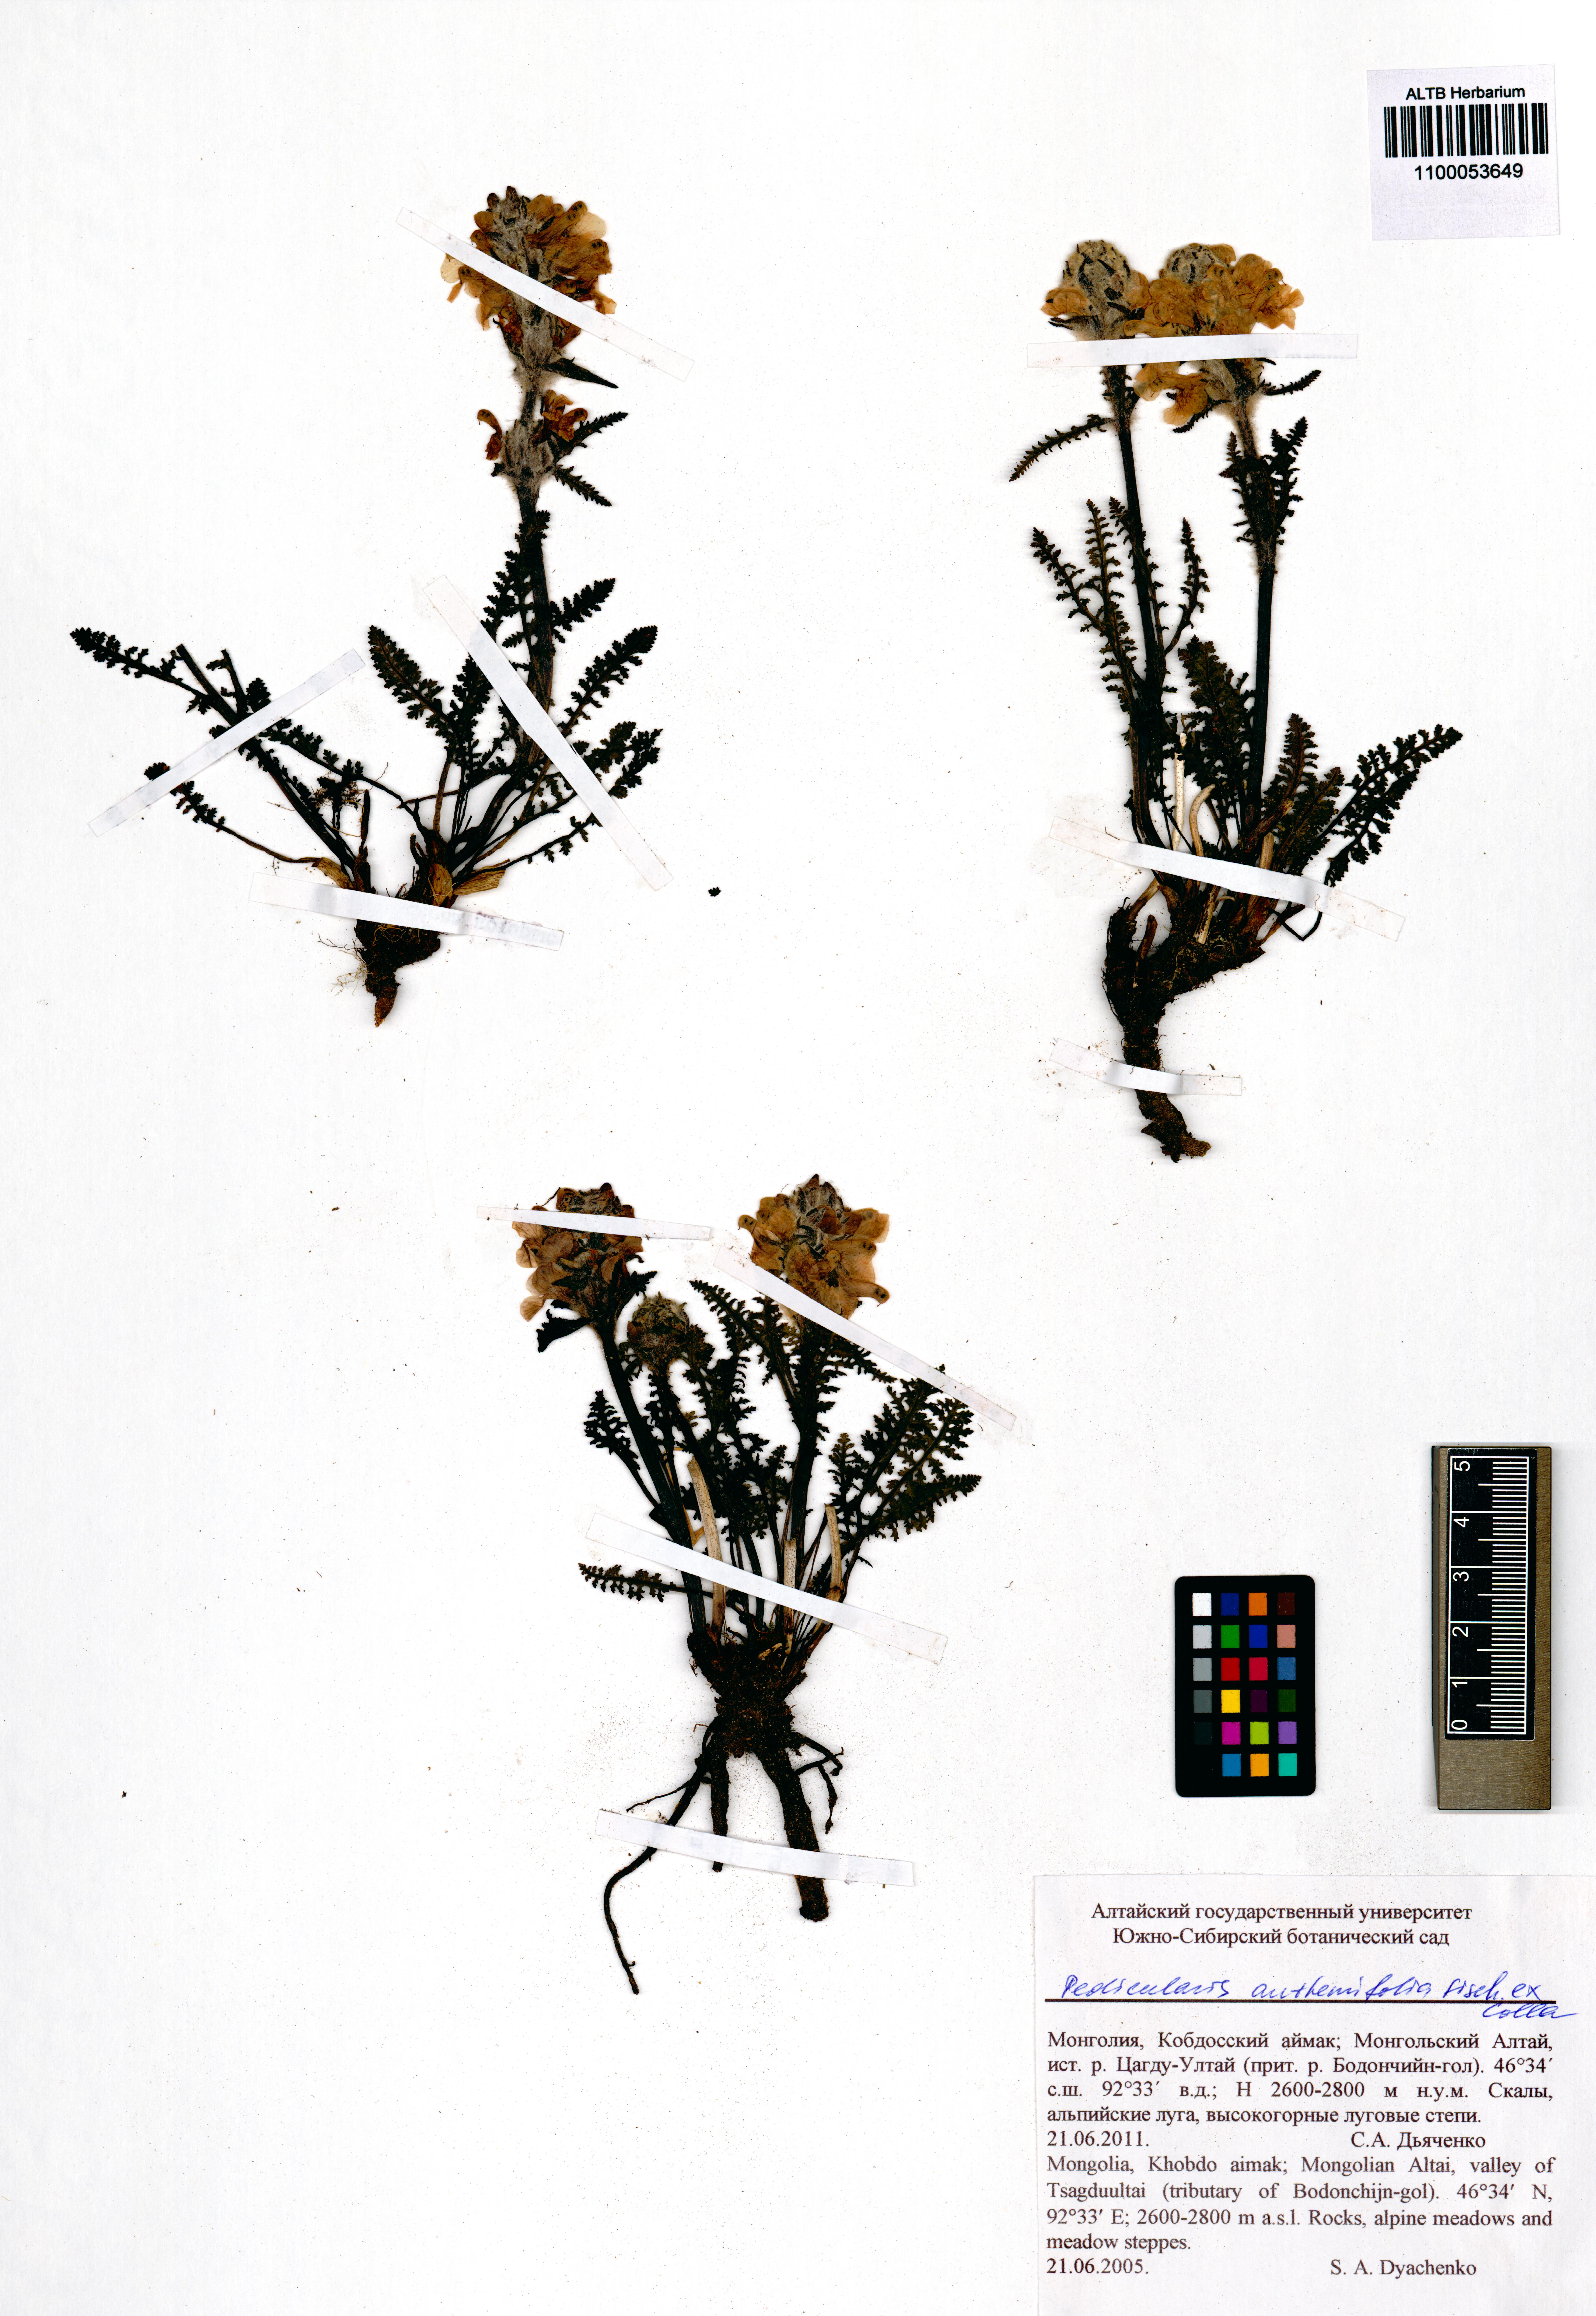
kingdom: Plantae
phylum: Tracheophyta
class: Magnoliopsida
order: Lamiales
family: Orobanchaceae
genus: Pedicularis
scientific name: Pedicularis anthemifolia
